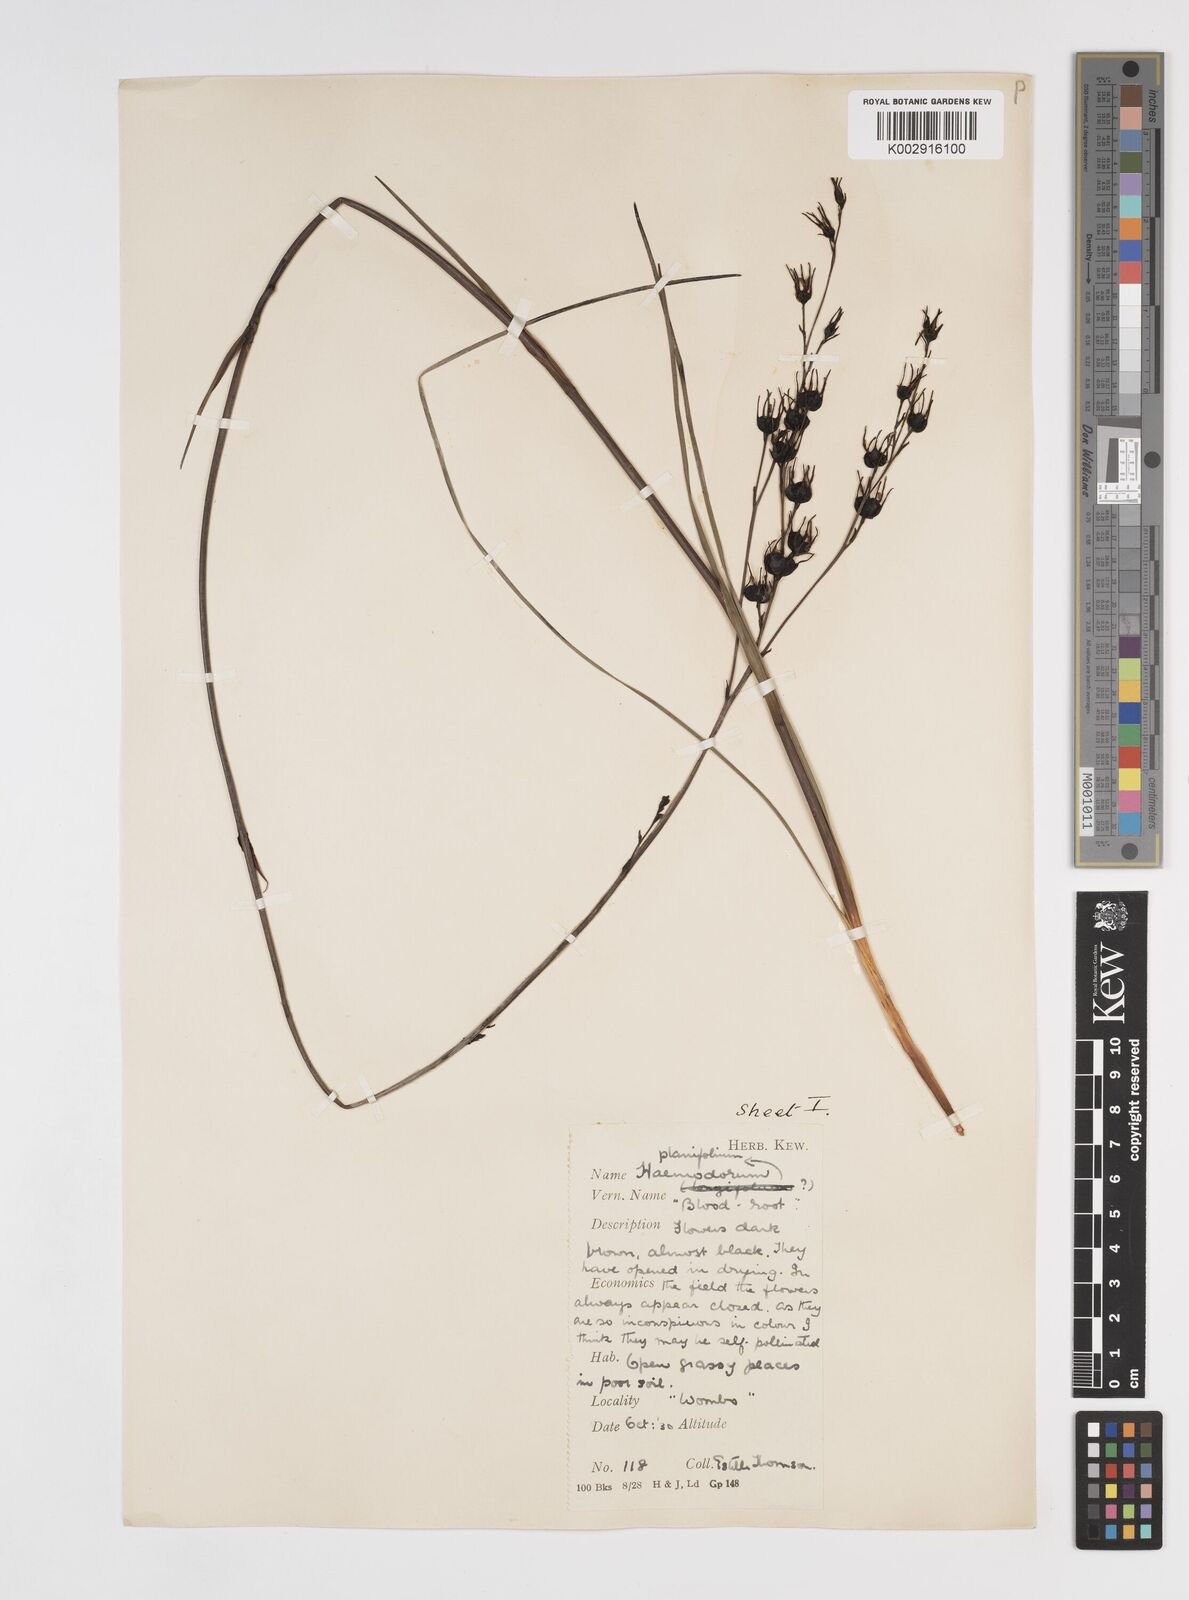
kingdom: Plantae
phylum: Tracheophyta
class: Liliopsida
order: Commelinales
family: Haemodoraceae
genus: Haemodorum
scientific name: Haemodorum corymbosum
